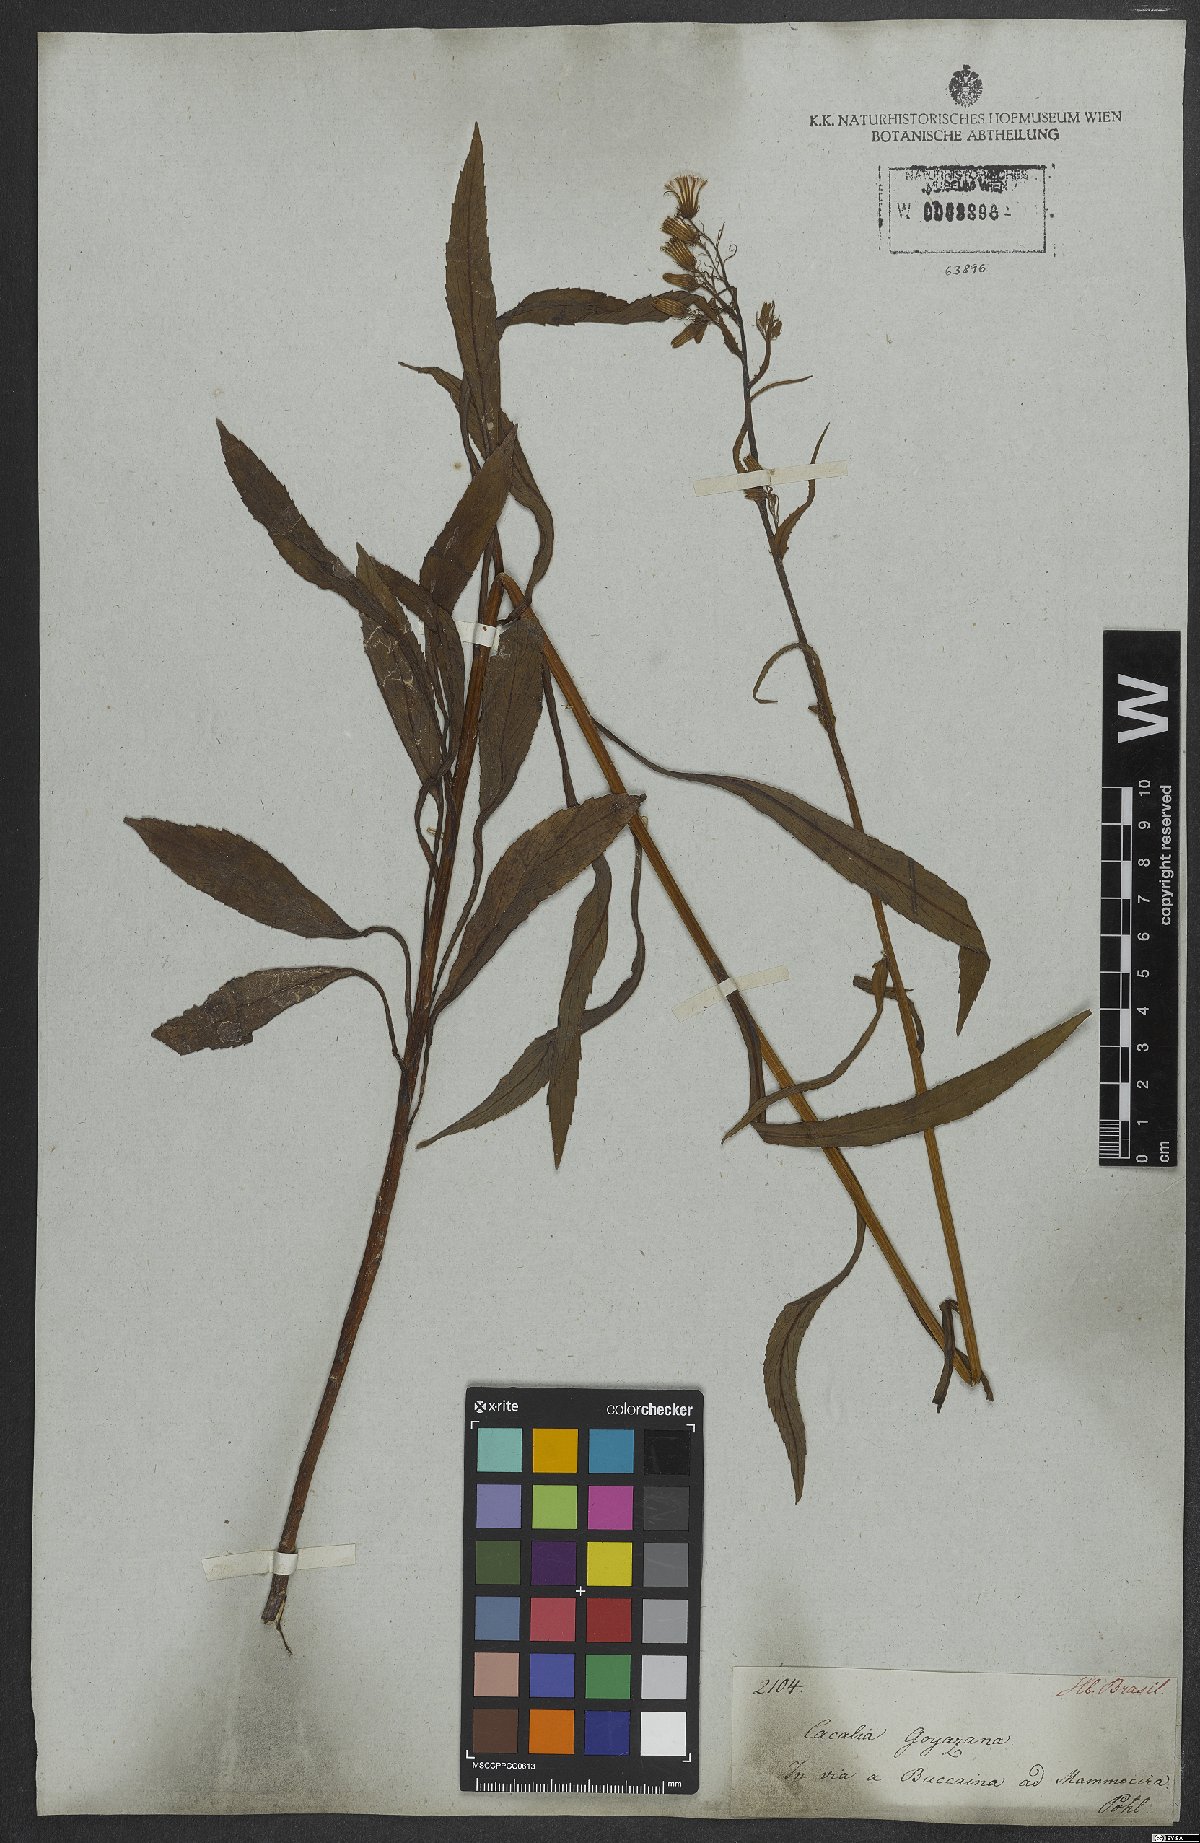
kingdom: Plantae
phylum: Tracheophyta
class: Magnoliopsida
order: Asterales
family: Asteraceae
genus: Erechtites
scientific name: Erechtites goyazensis
